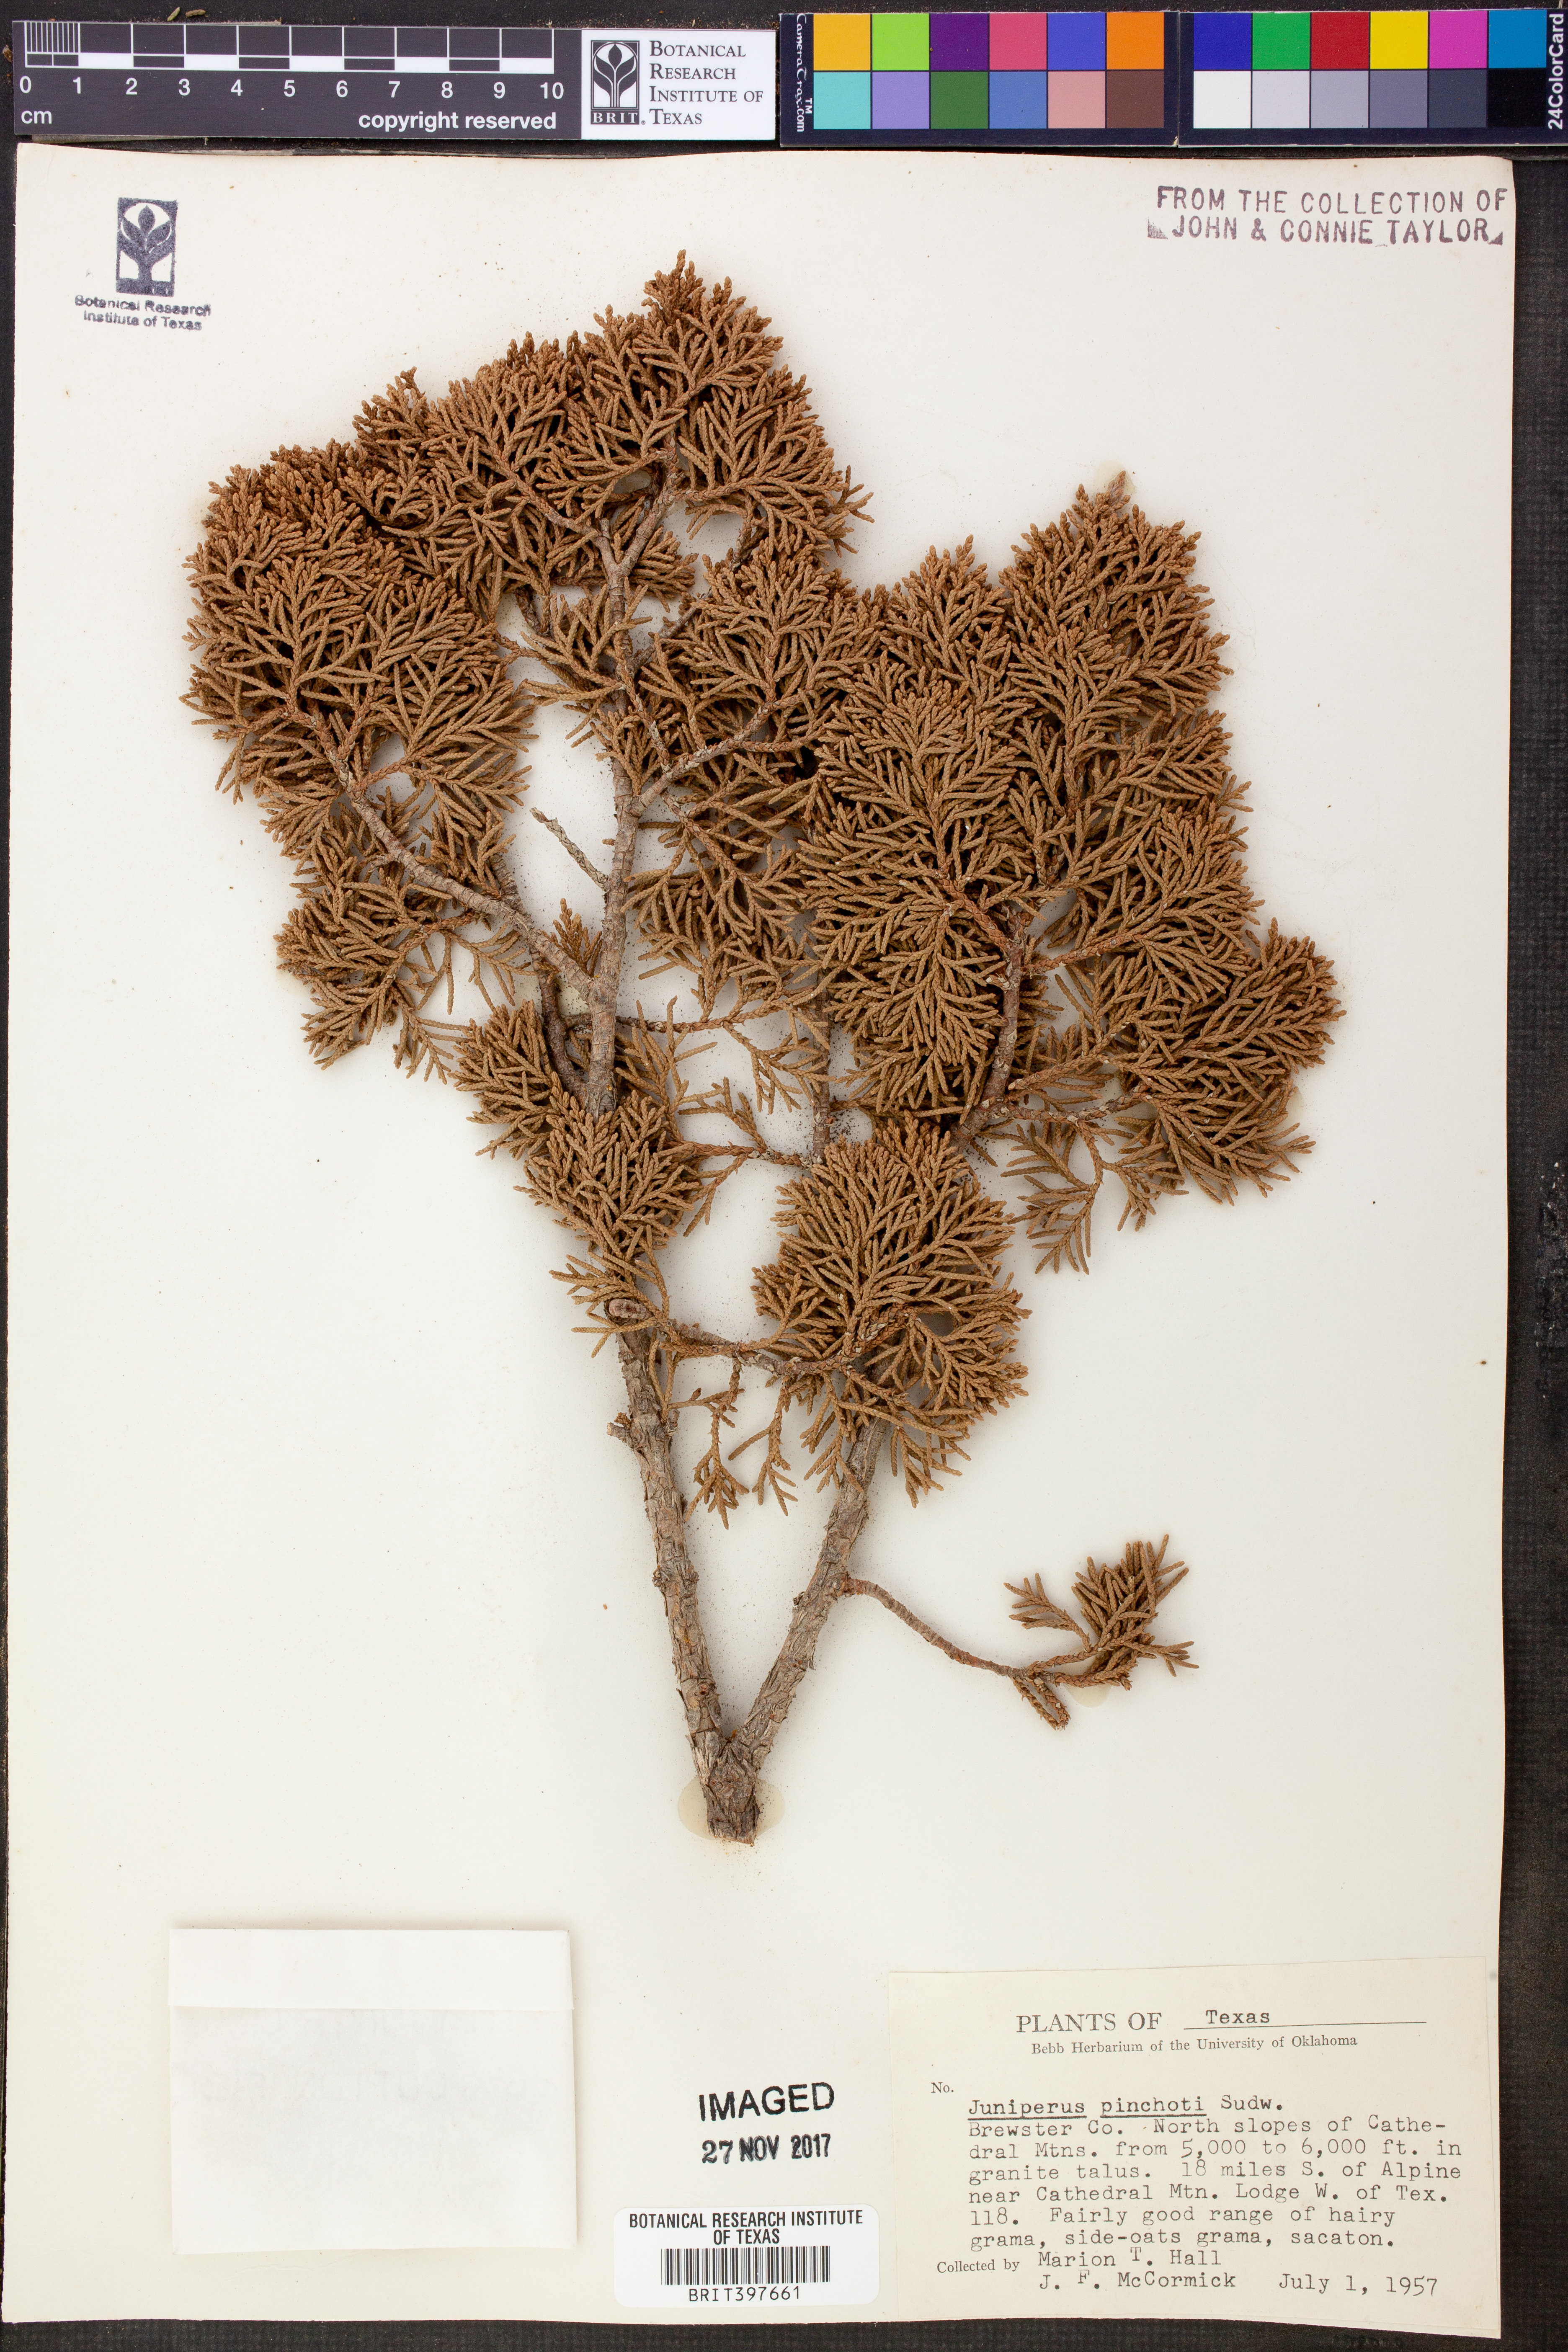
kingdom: Plantae
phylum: Tracheophyta
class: Pinopsida
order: Pinales
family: Cupressaceae
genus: Juniperus
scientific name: Juniperus pinchotii
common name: Pinchot juniper
